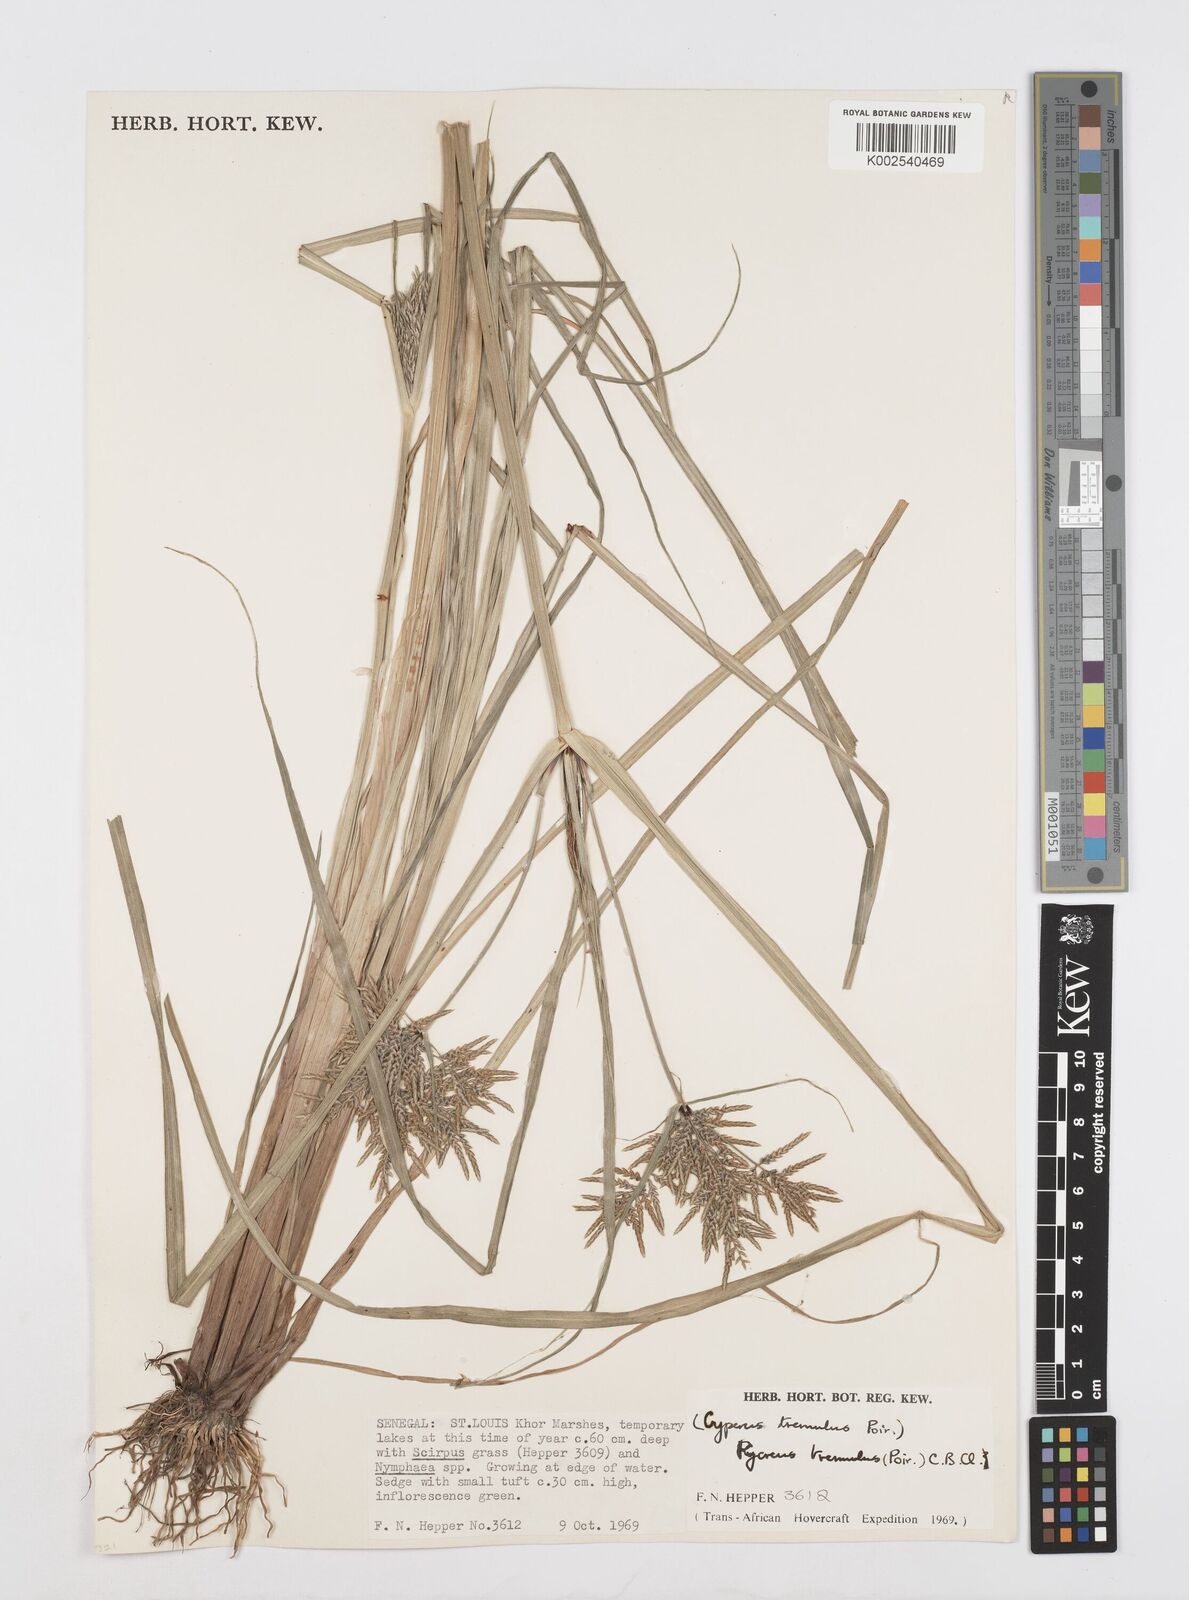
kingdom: Plantae
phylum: Tracheophyta
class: Liliopsida
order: Poales
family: Cyperaceae
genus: Cyperus
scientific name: Cyperus macrostachyos
